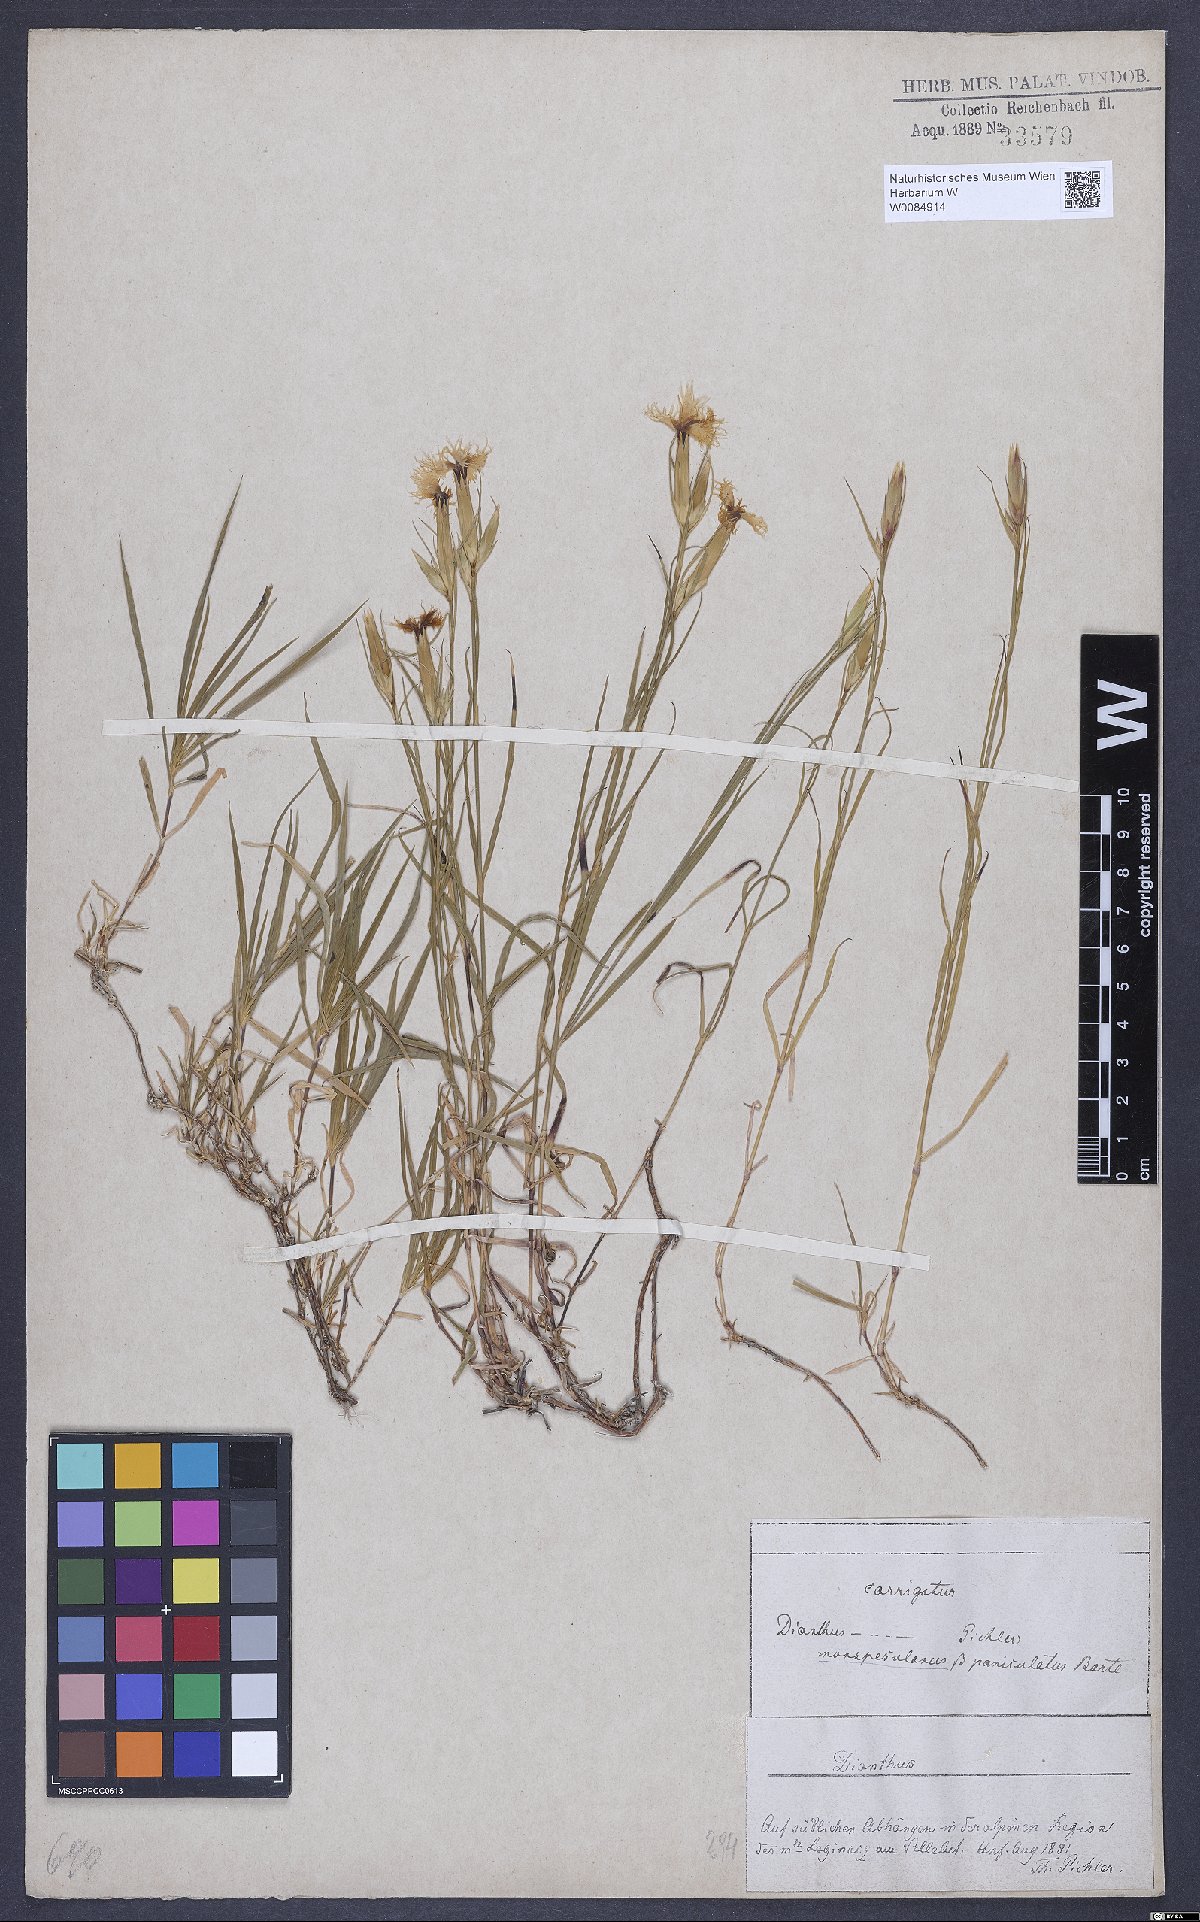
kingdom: Plantae
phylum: Tracheophyta
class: Magnoliopsida
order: Caryophyllales
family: Caryophyllaceae
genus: Dianthus
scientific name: Dianthus hyssopifolius
